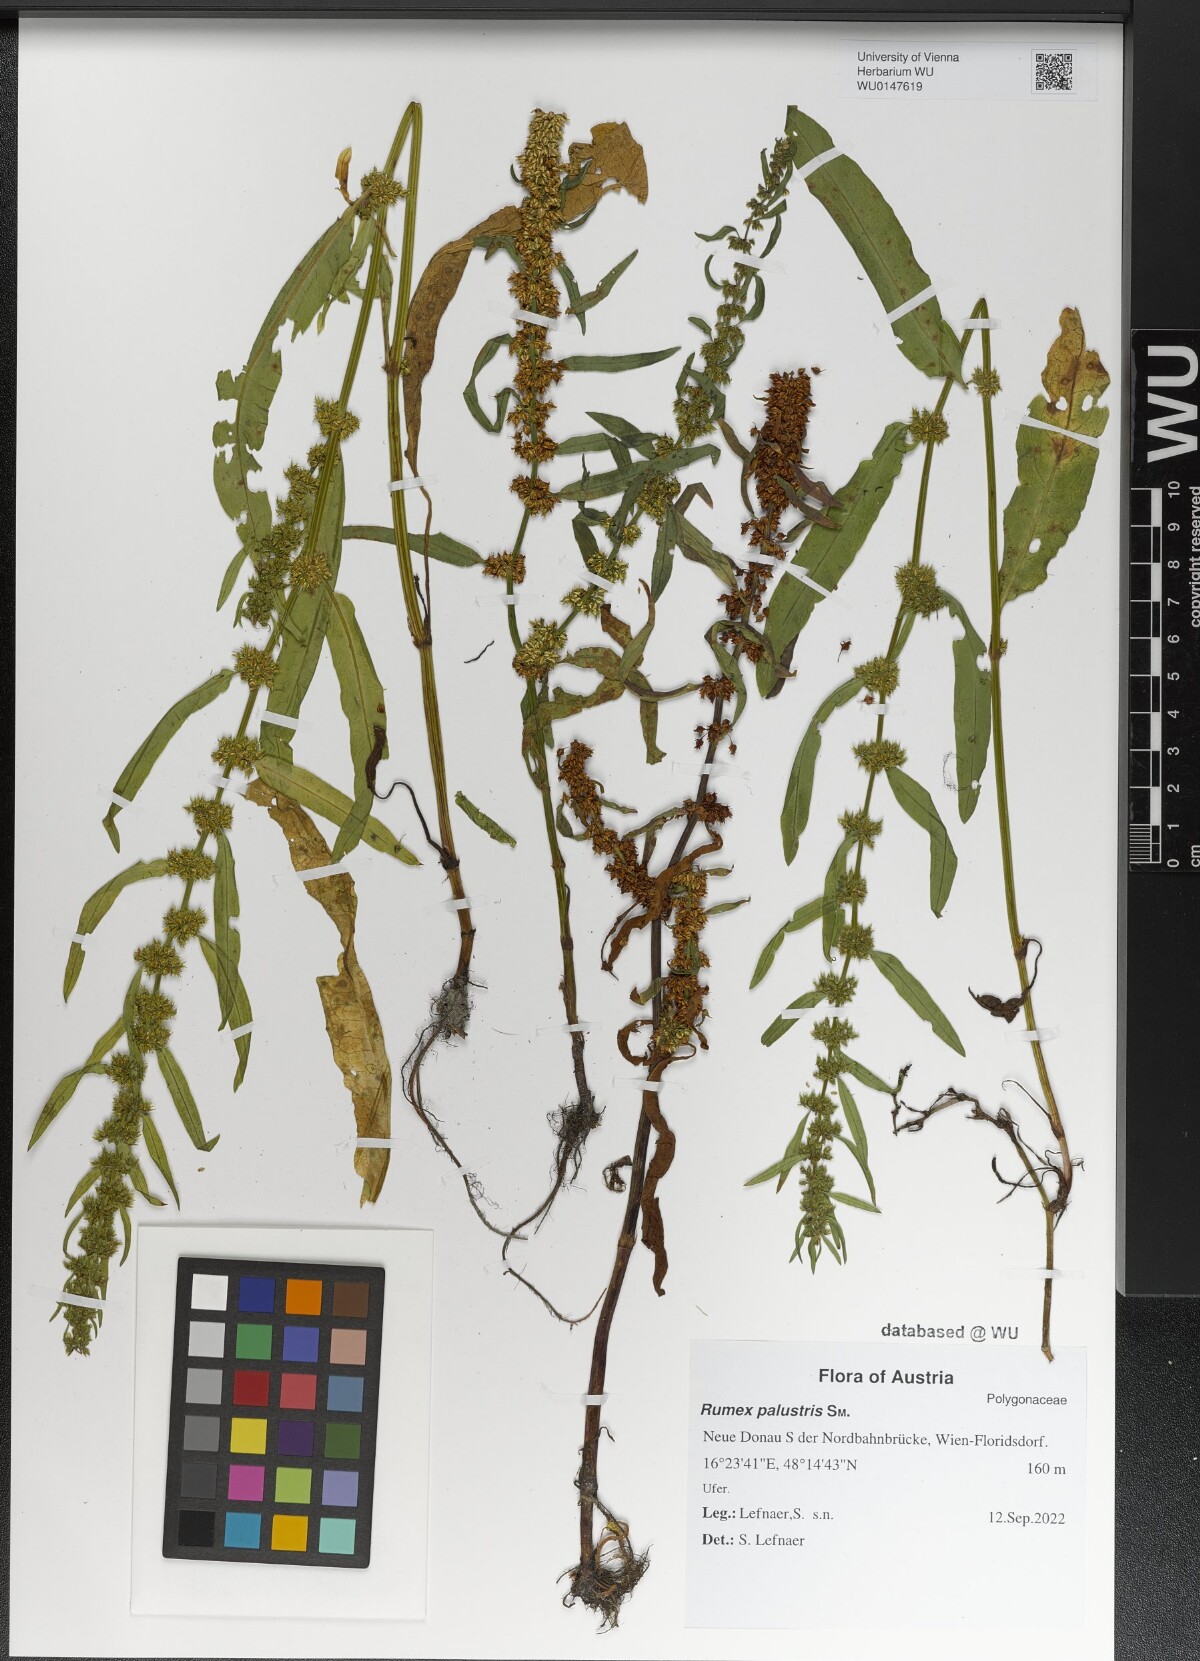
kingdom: Plantae
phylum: Tracheophyta
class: Magnoliopsida
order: Caryophyllales
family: Polygonaceae
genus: Rumex
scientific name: Rumex palustris
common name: Marsh dock
